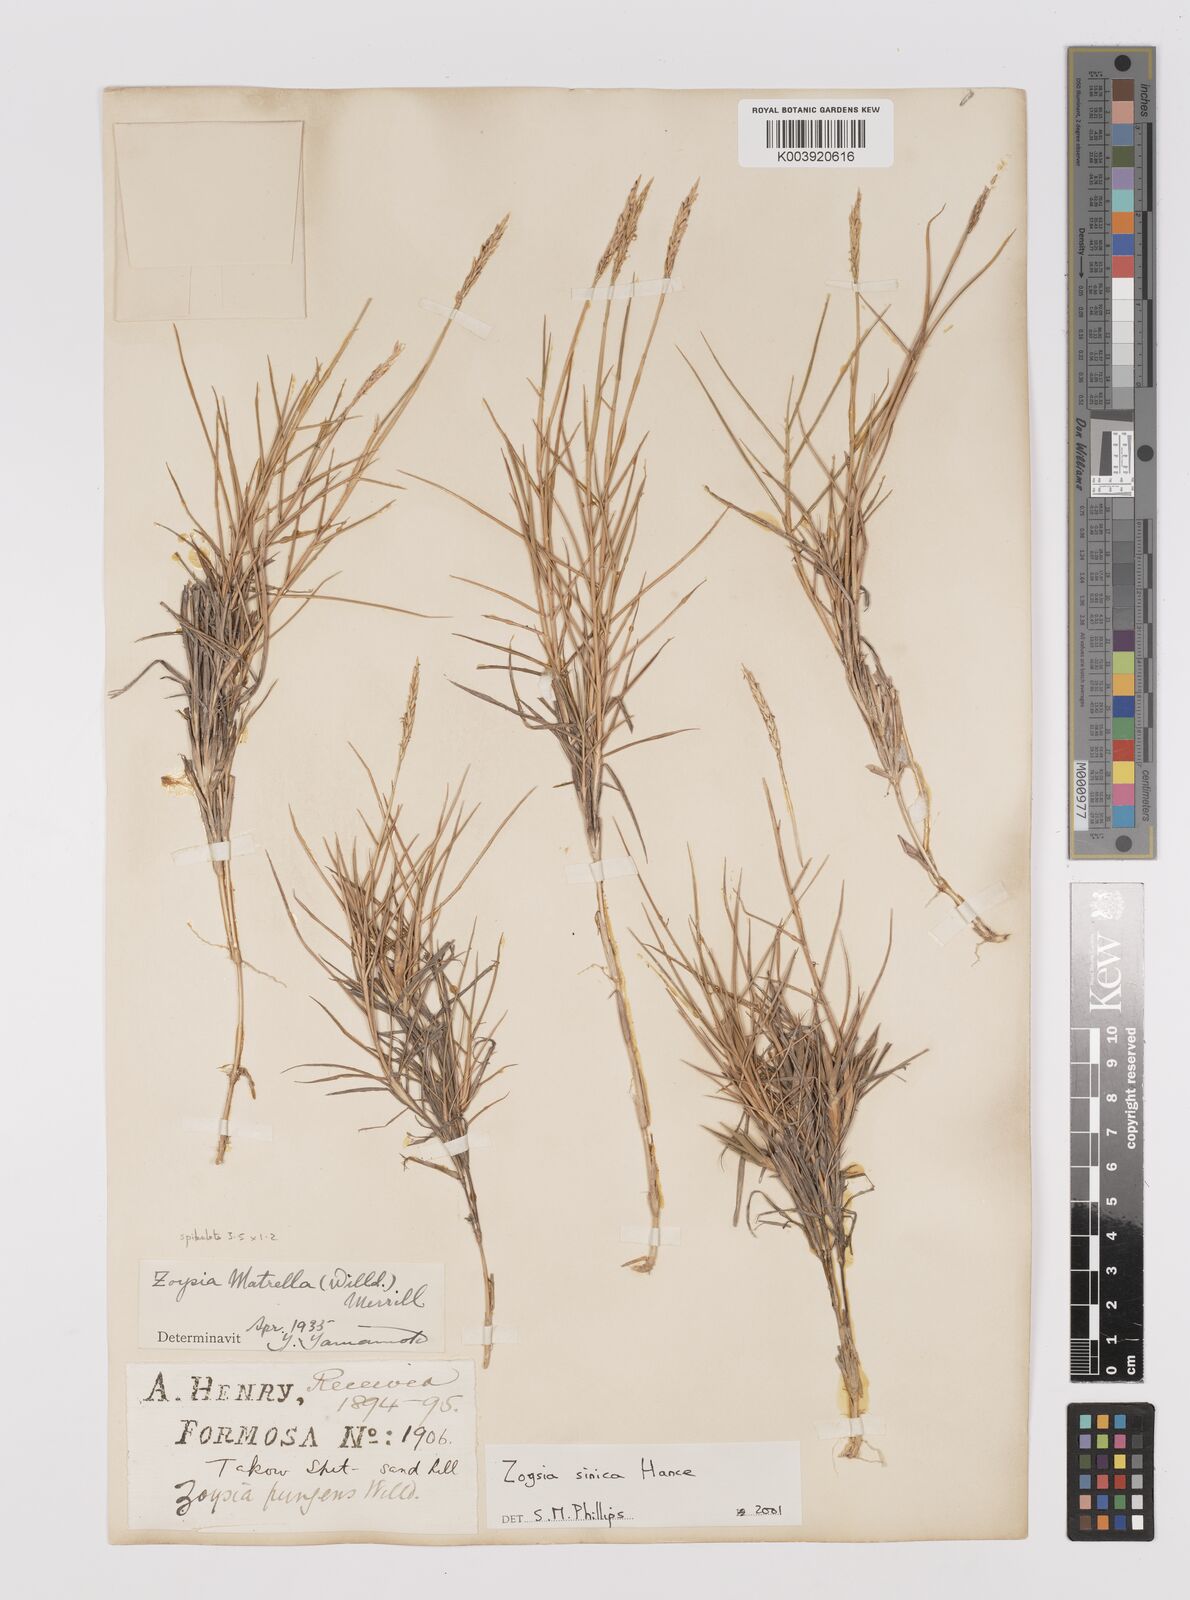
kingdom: Plantae
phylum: Tracheophyta
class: Liliopsida
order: Poales
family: Poaceae
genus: Zoysia
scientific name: Zoysia sinica
